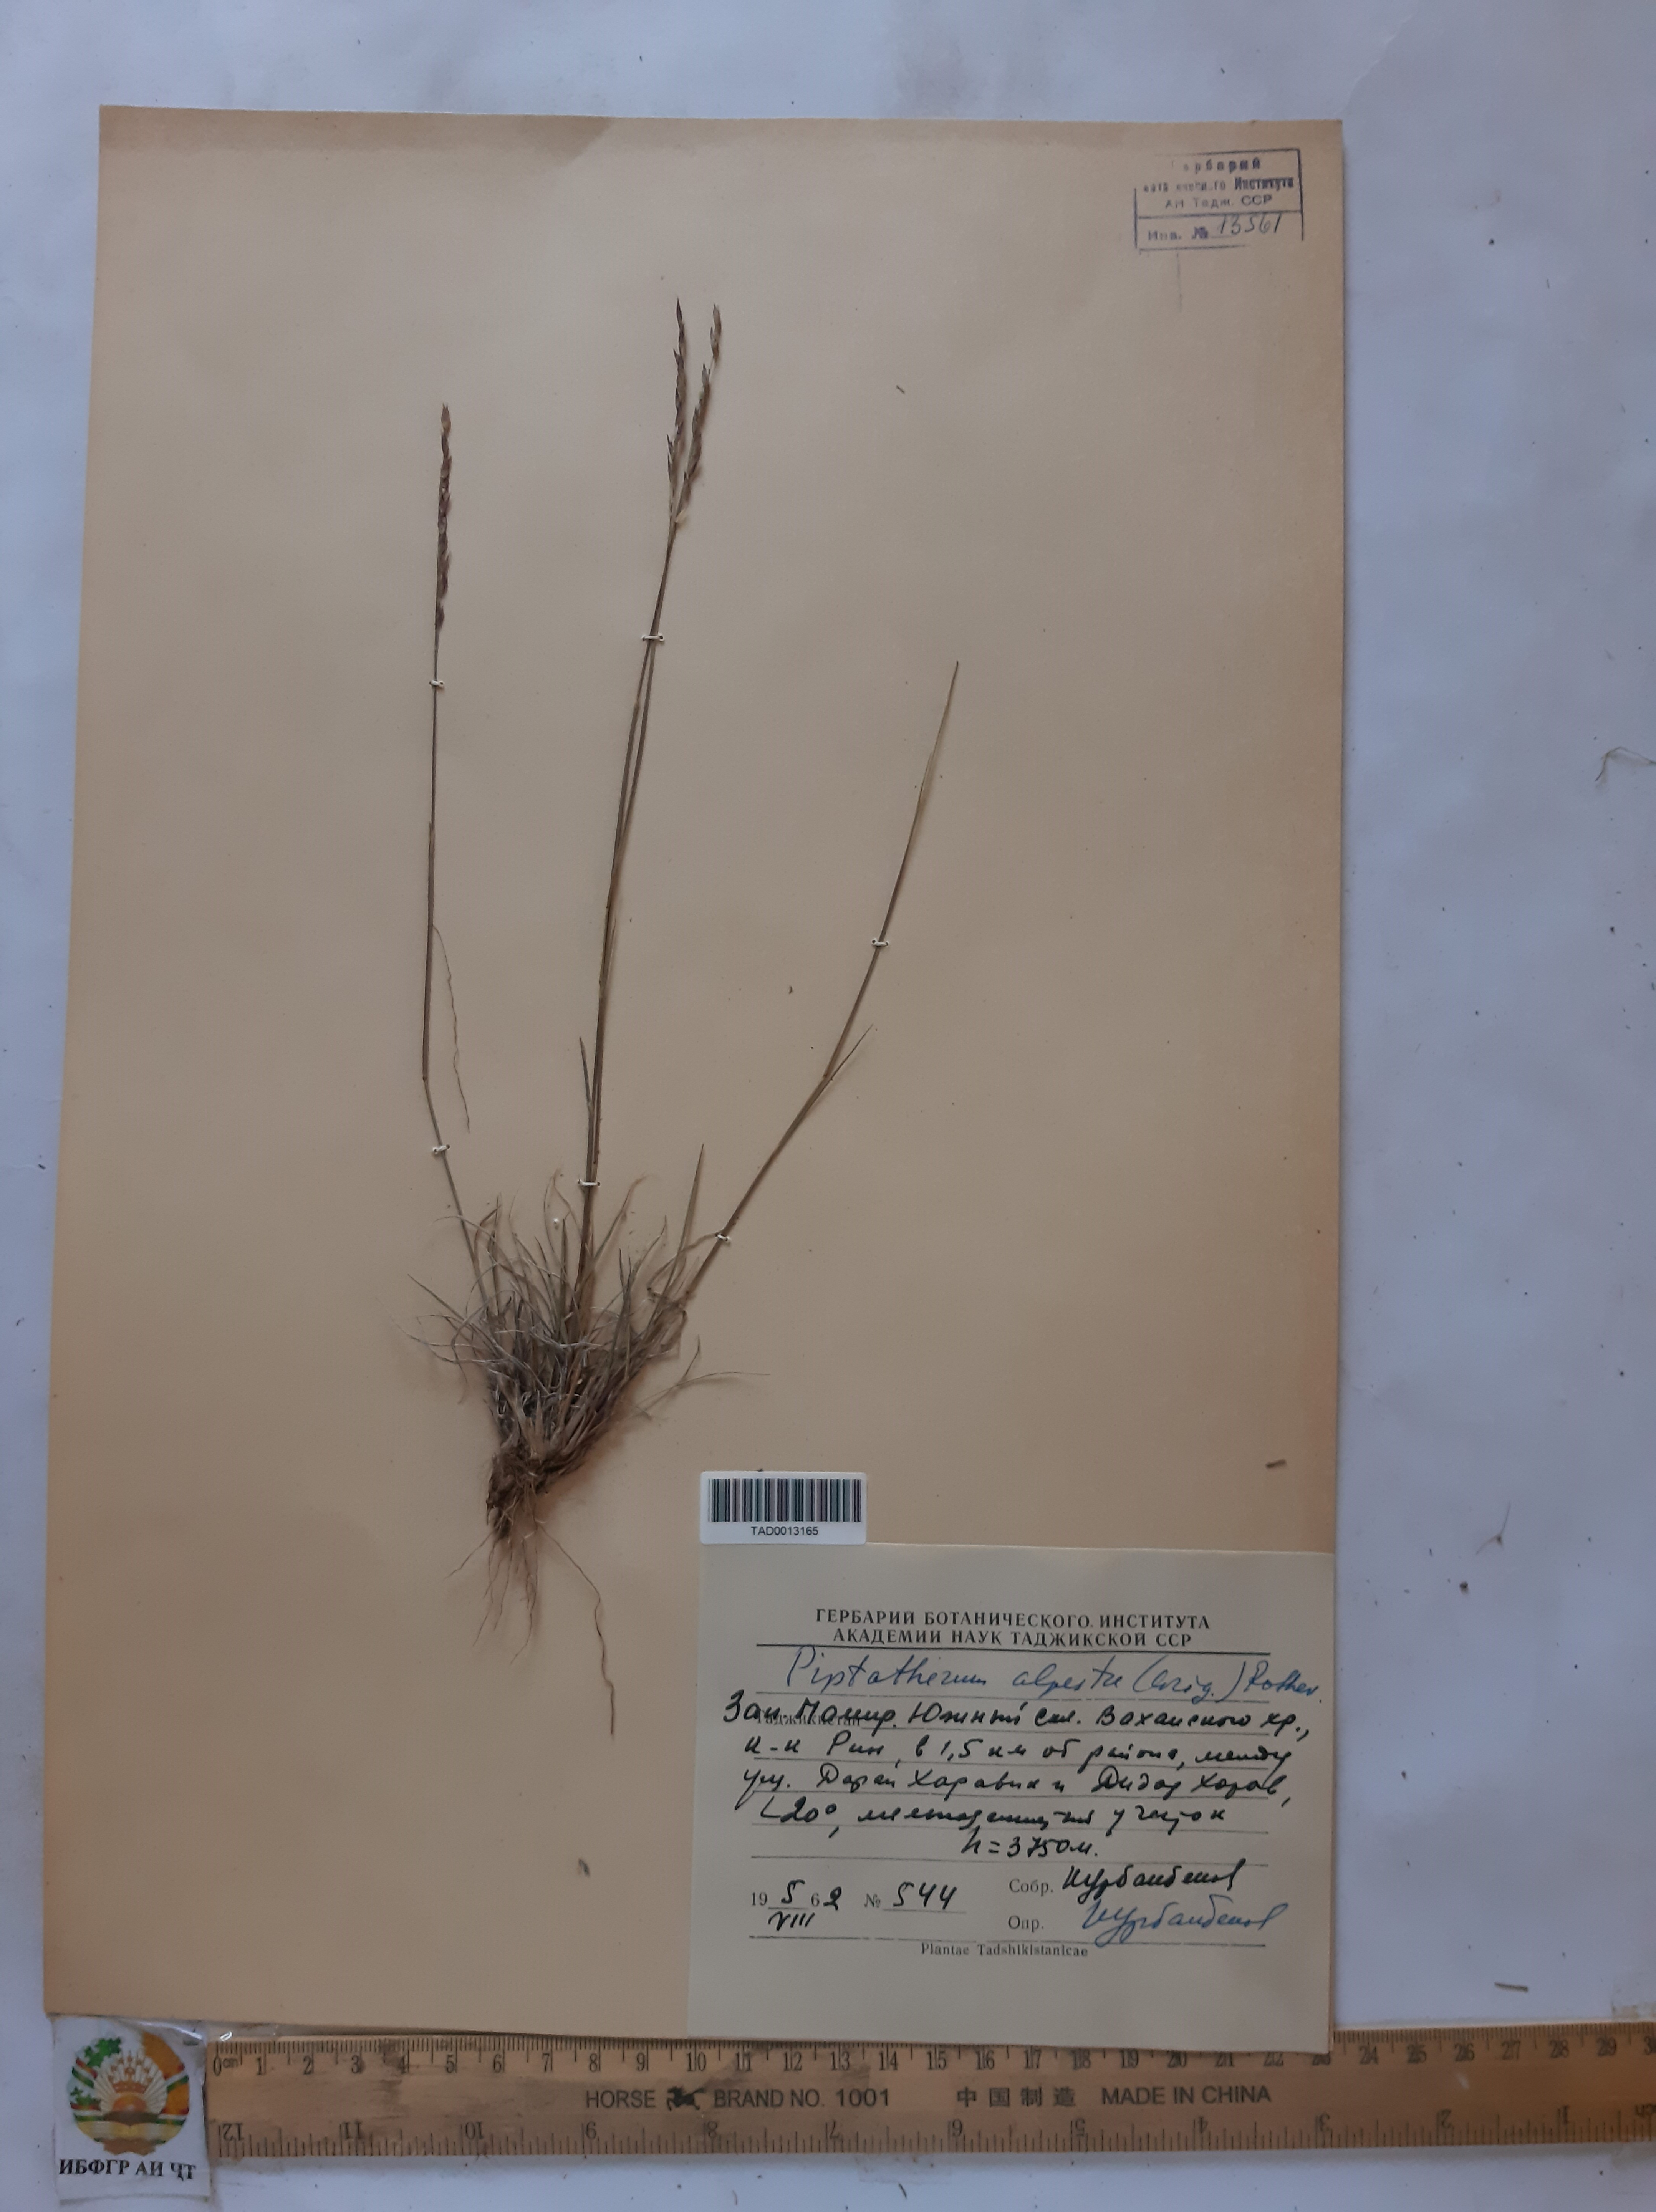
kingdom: Plantae
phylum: Tracheophyta
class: Liliopsida
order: Poales
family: Poaceae
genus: Piptatherum
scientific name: Piptatherum alpestre
